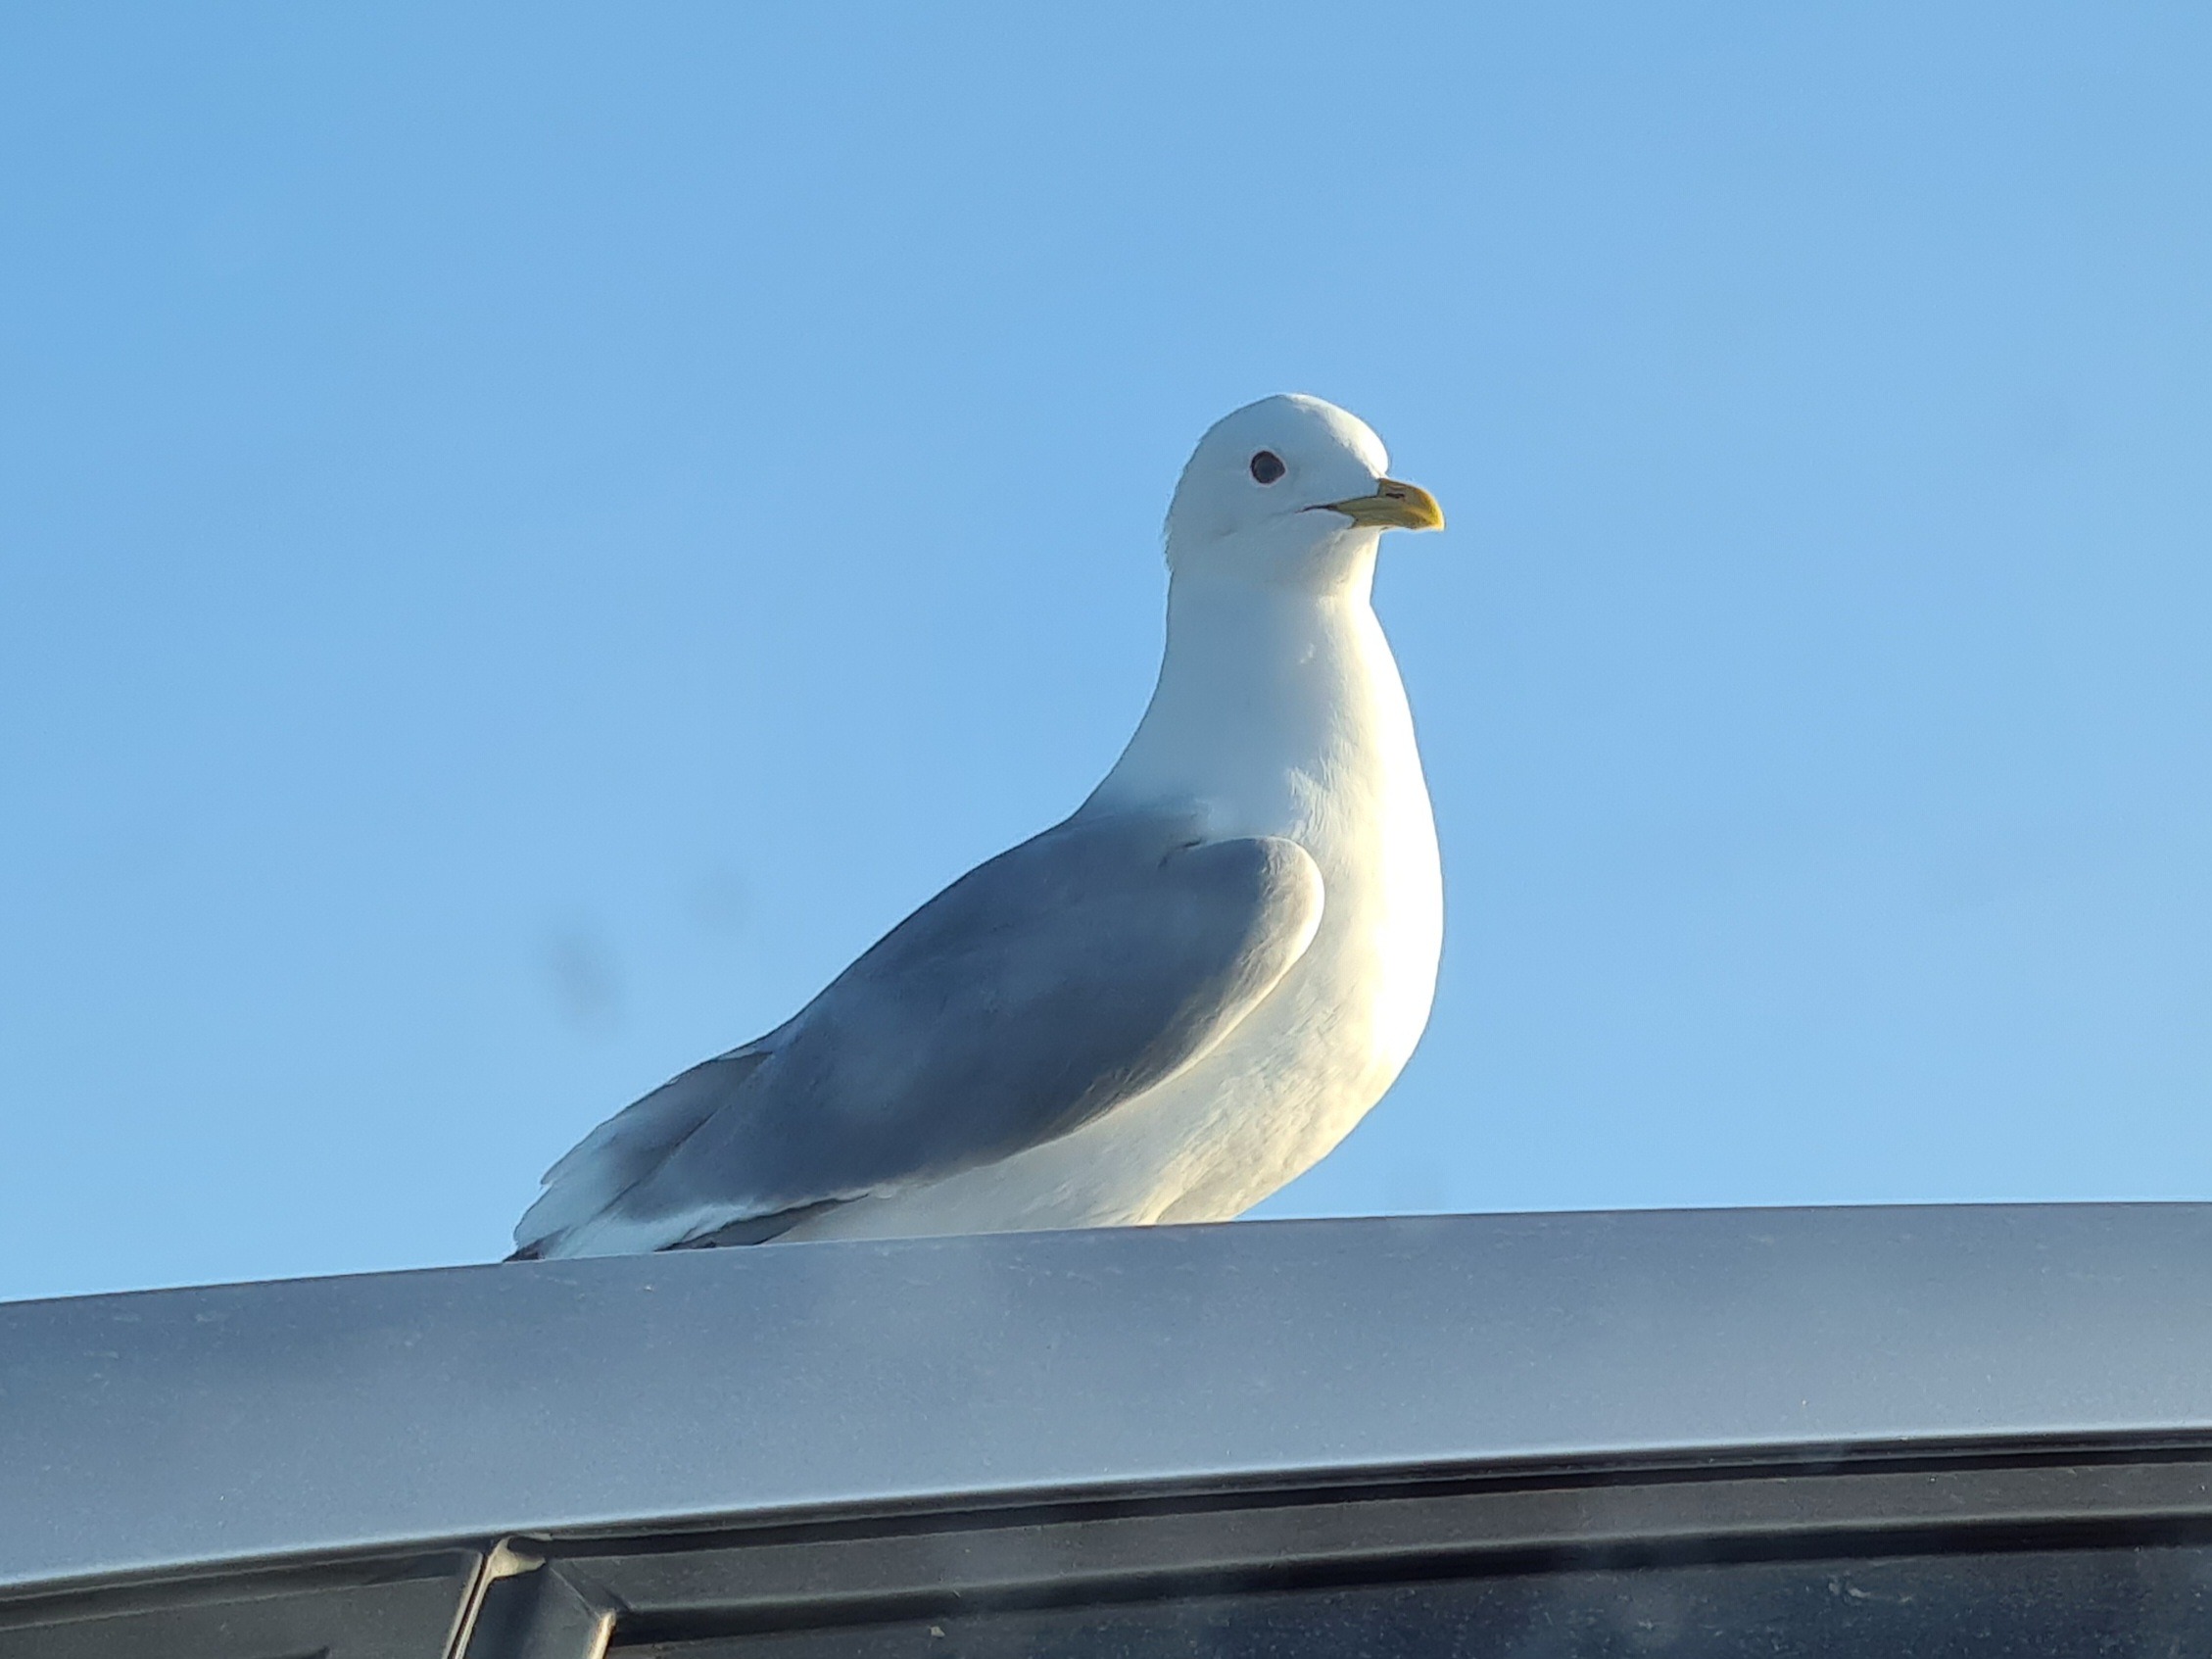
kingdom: Animalia
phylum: Chordata
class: Aves
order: Charadriiformes
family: Laridae
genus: Larus
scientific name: Larus canus
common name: Stormmåge
